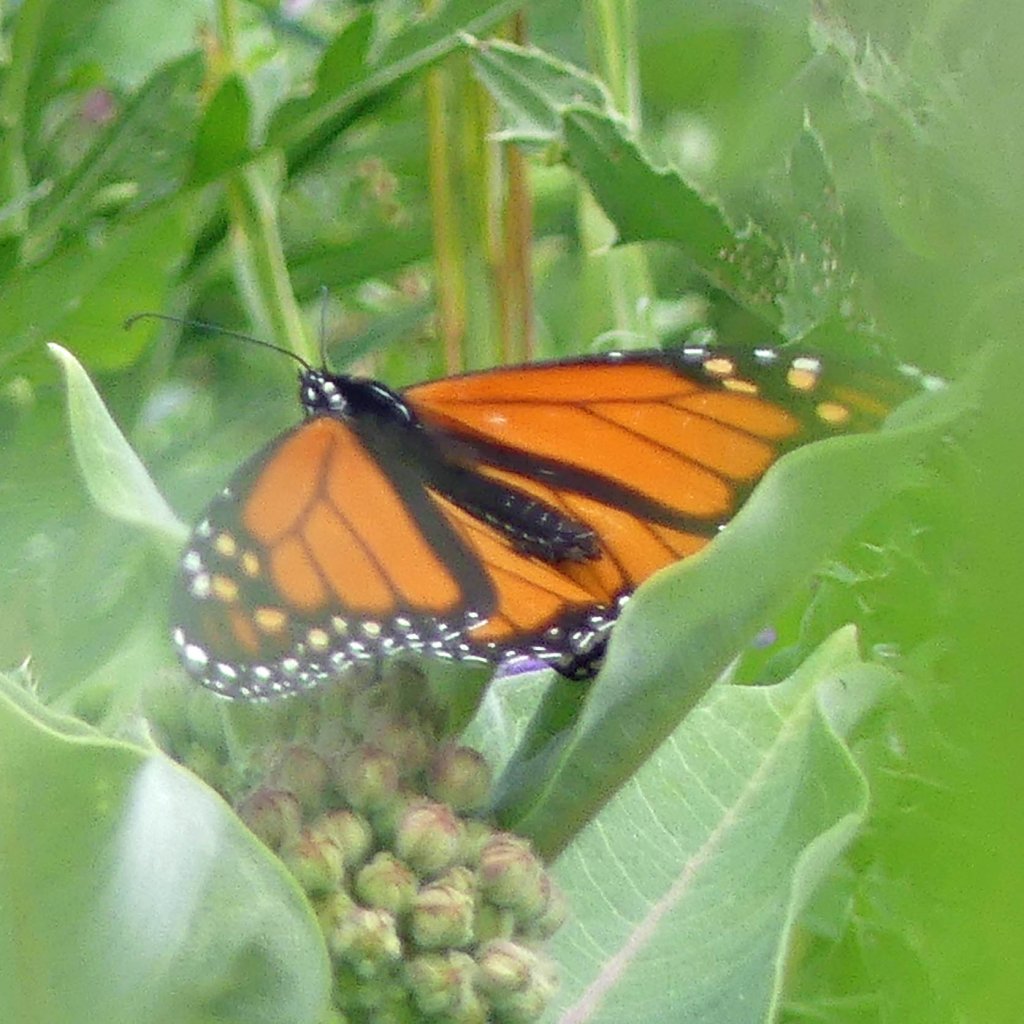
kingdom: Animalia
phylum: Arthropoda
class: Insecta
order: Lepidoptera
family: Nymphalidae
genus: Danaus
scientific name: Danaus plexippus
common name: Monarch
